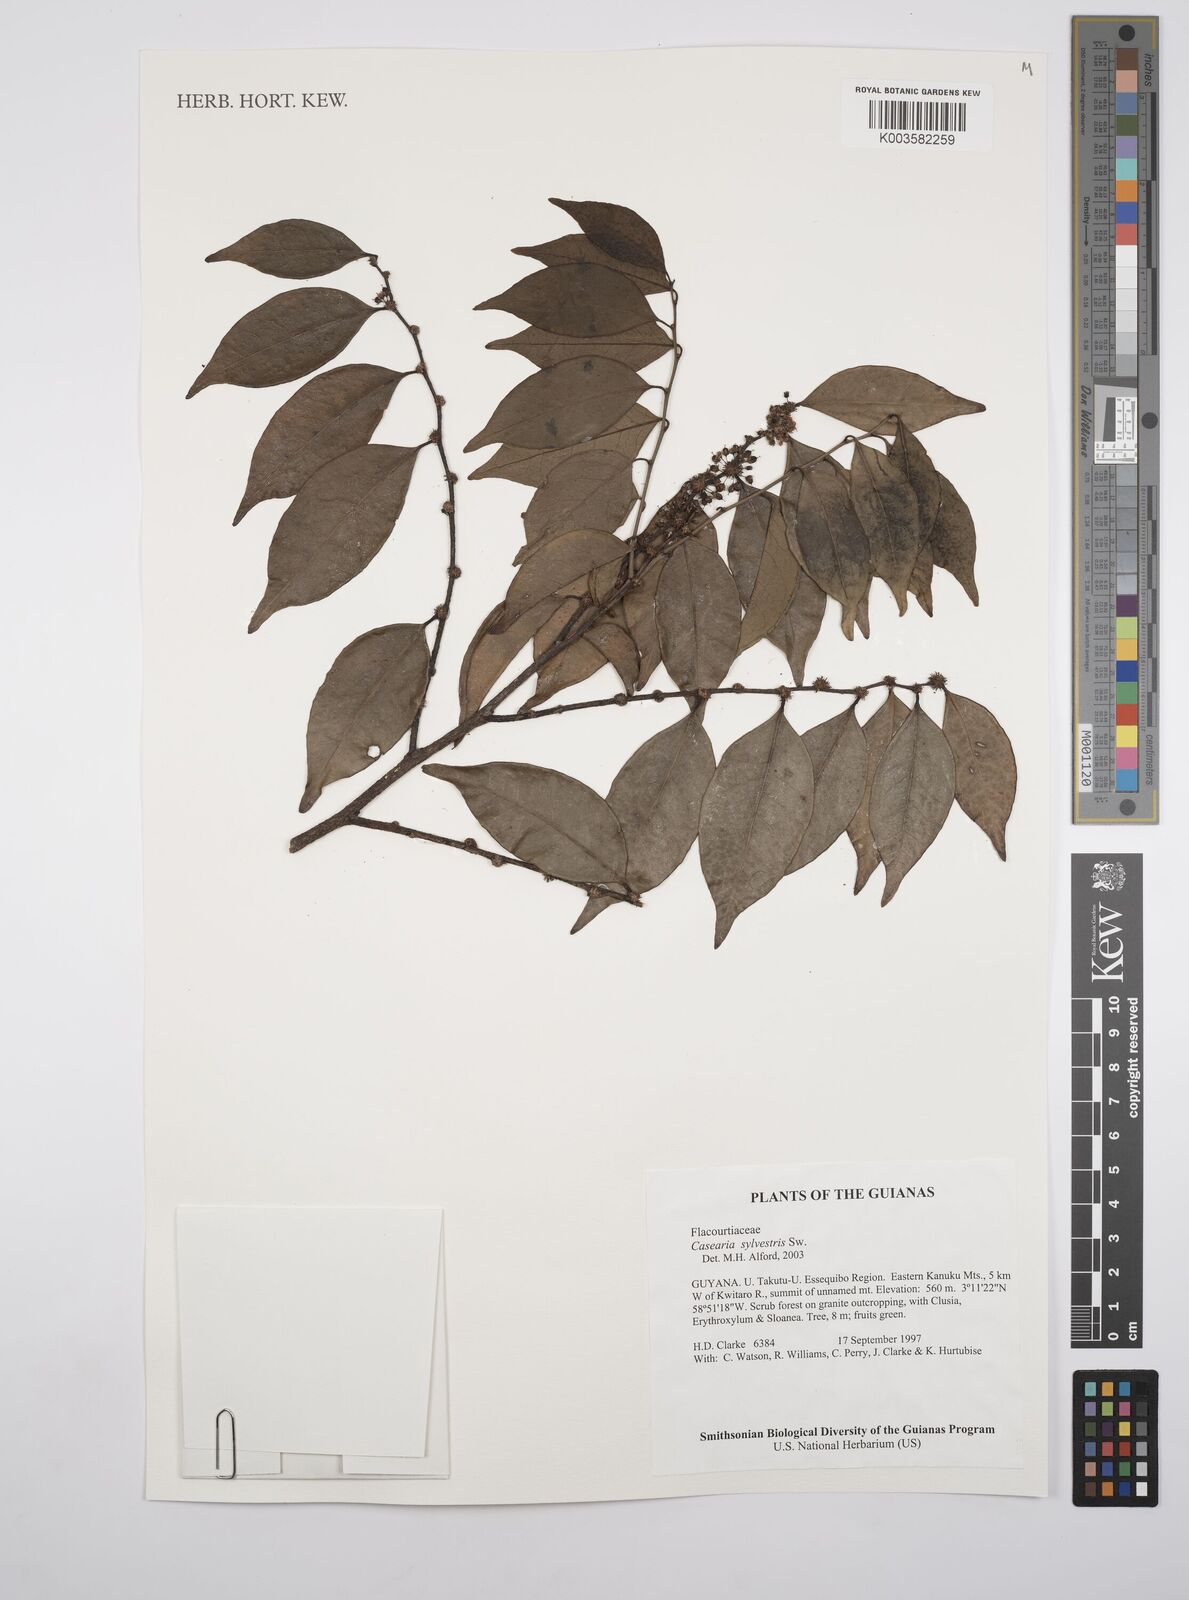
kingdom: Plantae
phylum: Tracheophyta
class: Magnoliopsida
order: Malpighiales
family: Salicaceae
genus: Casearia
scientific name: Casearia sylvestris
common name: Wild sage
